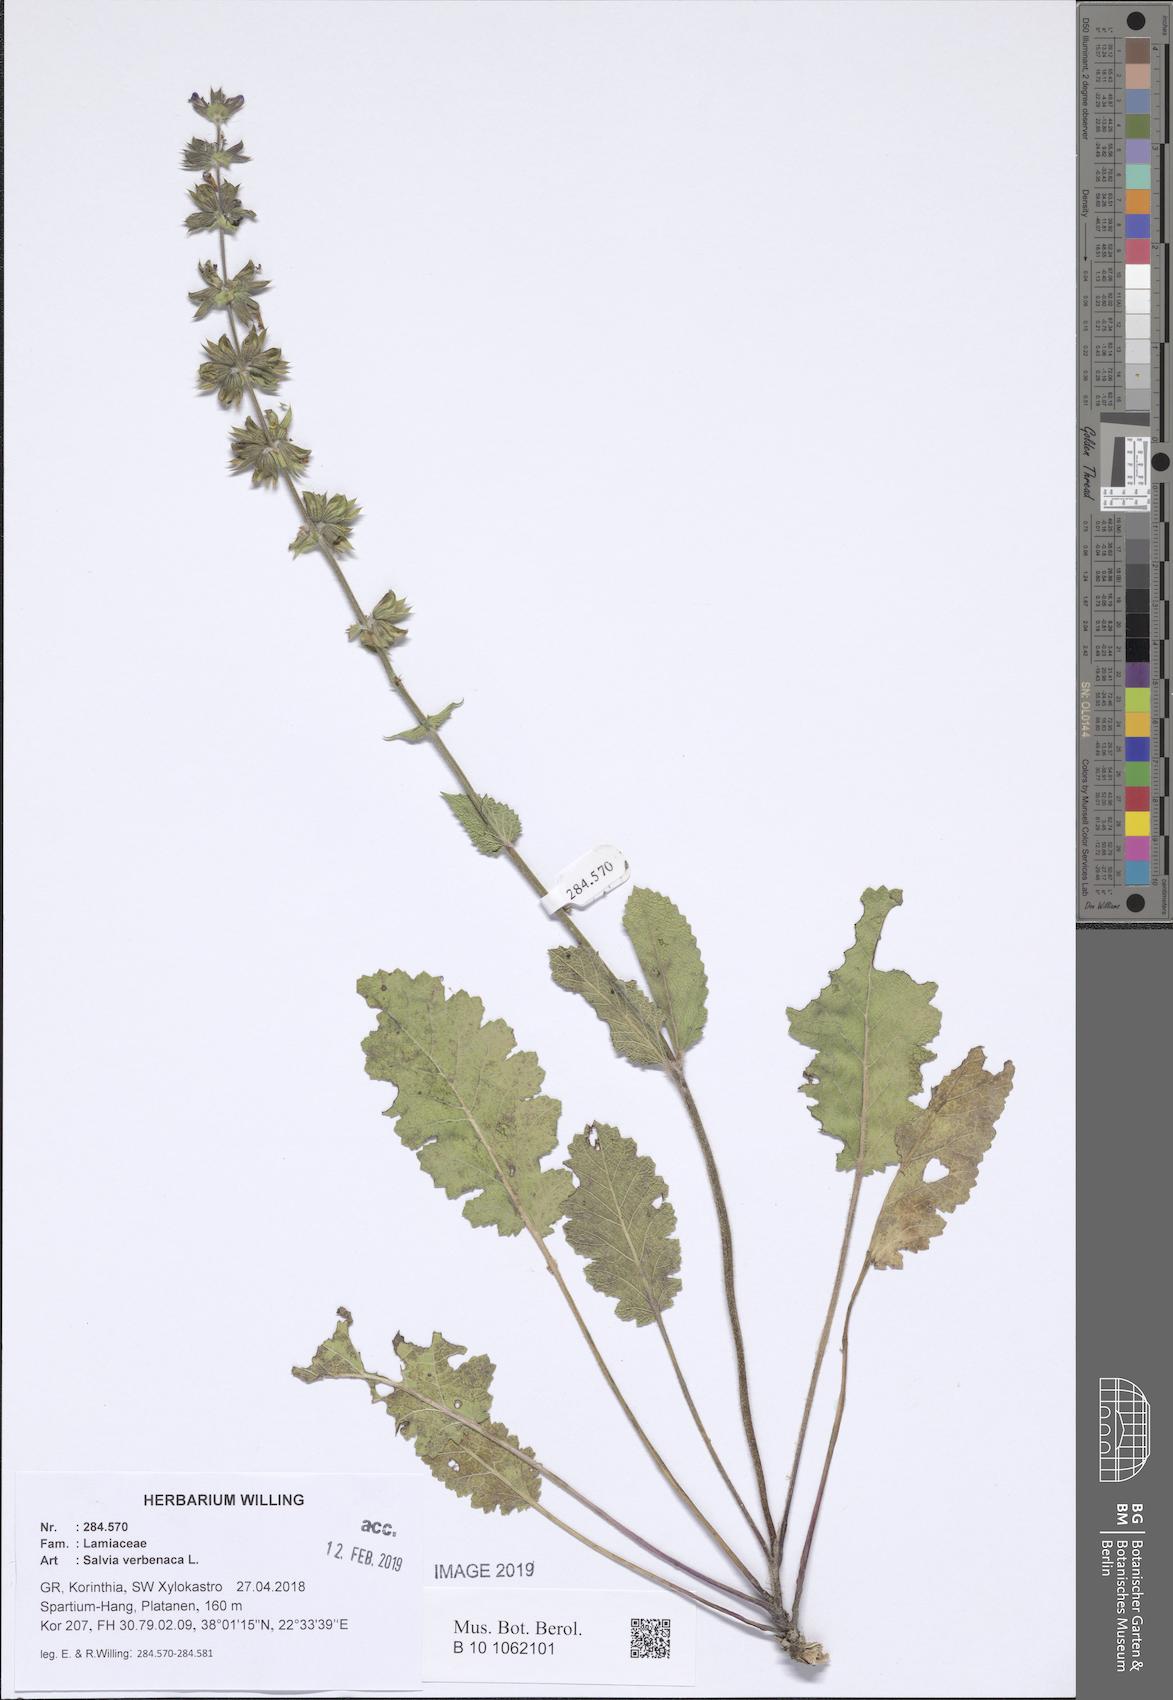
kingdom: Plantae
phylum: Tracheophyta
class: Magnoliopsida
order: Lamiales
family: Lamiaceae
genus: Salvia
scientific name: Salvia verbenaca
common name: Wild clary
